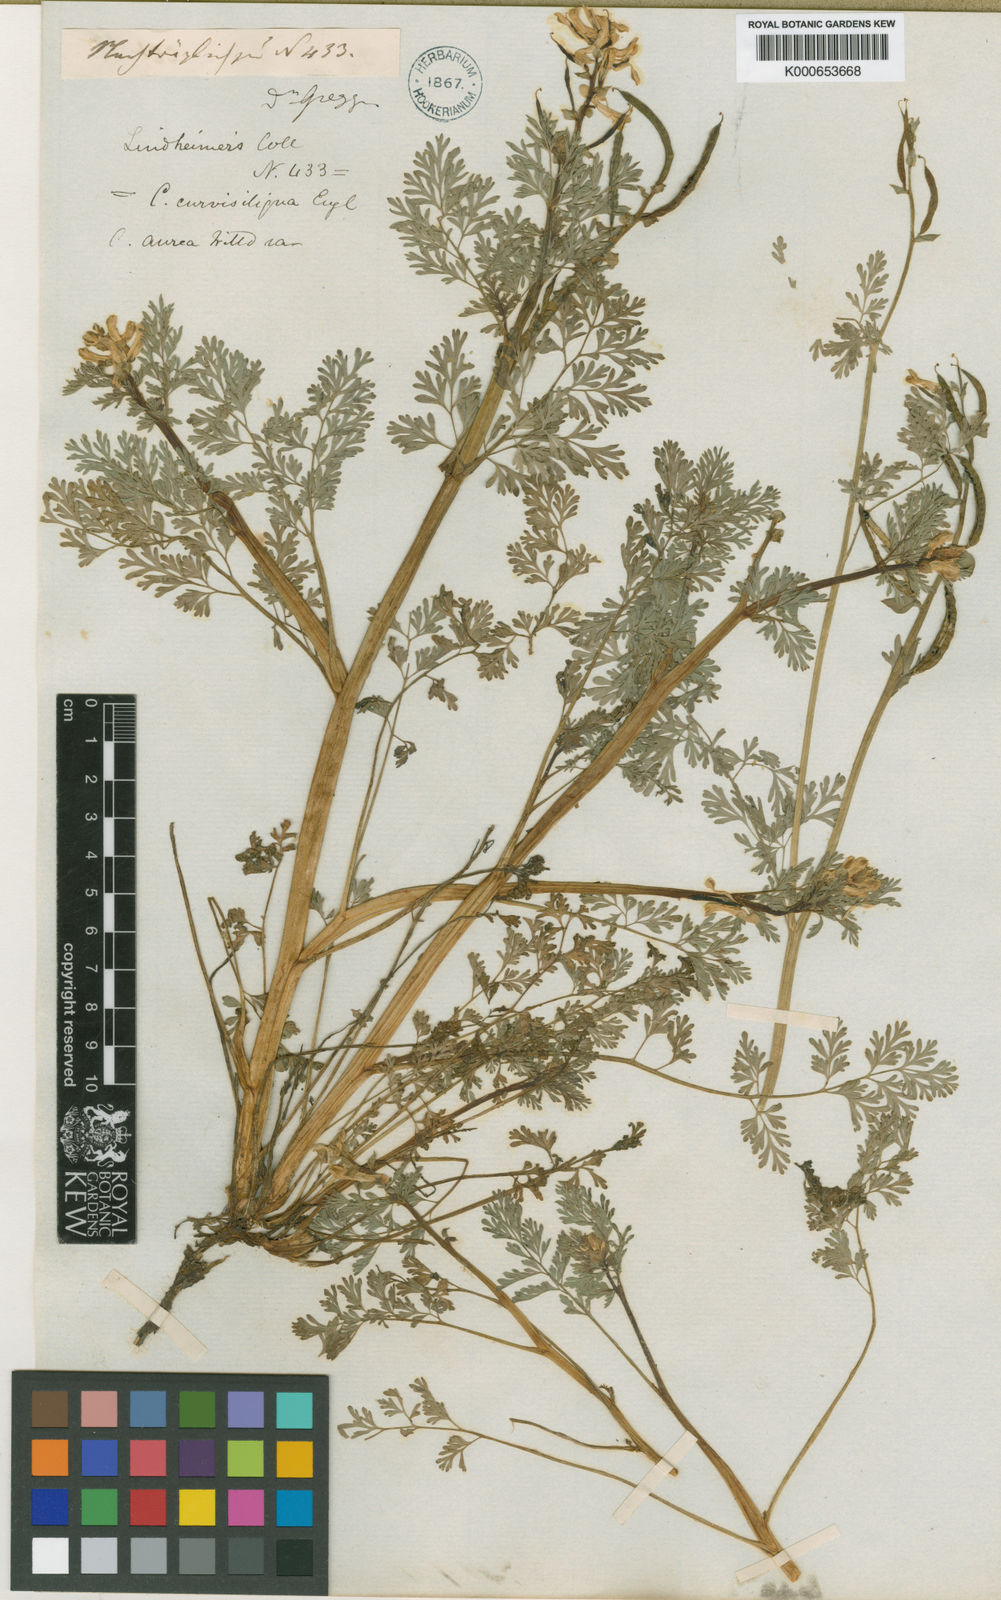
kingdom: Plantae
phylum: Tracheophyta
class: Magnoliopsida
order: Ranunculales
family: Papaveraceae
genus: Corydalis
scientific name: Corydalis aurea
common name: Golden corydalis
